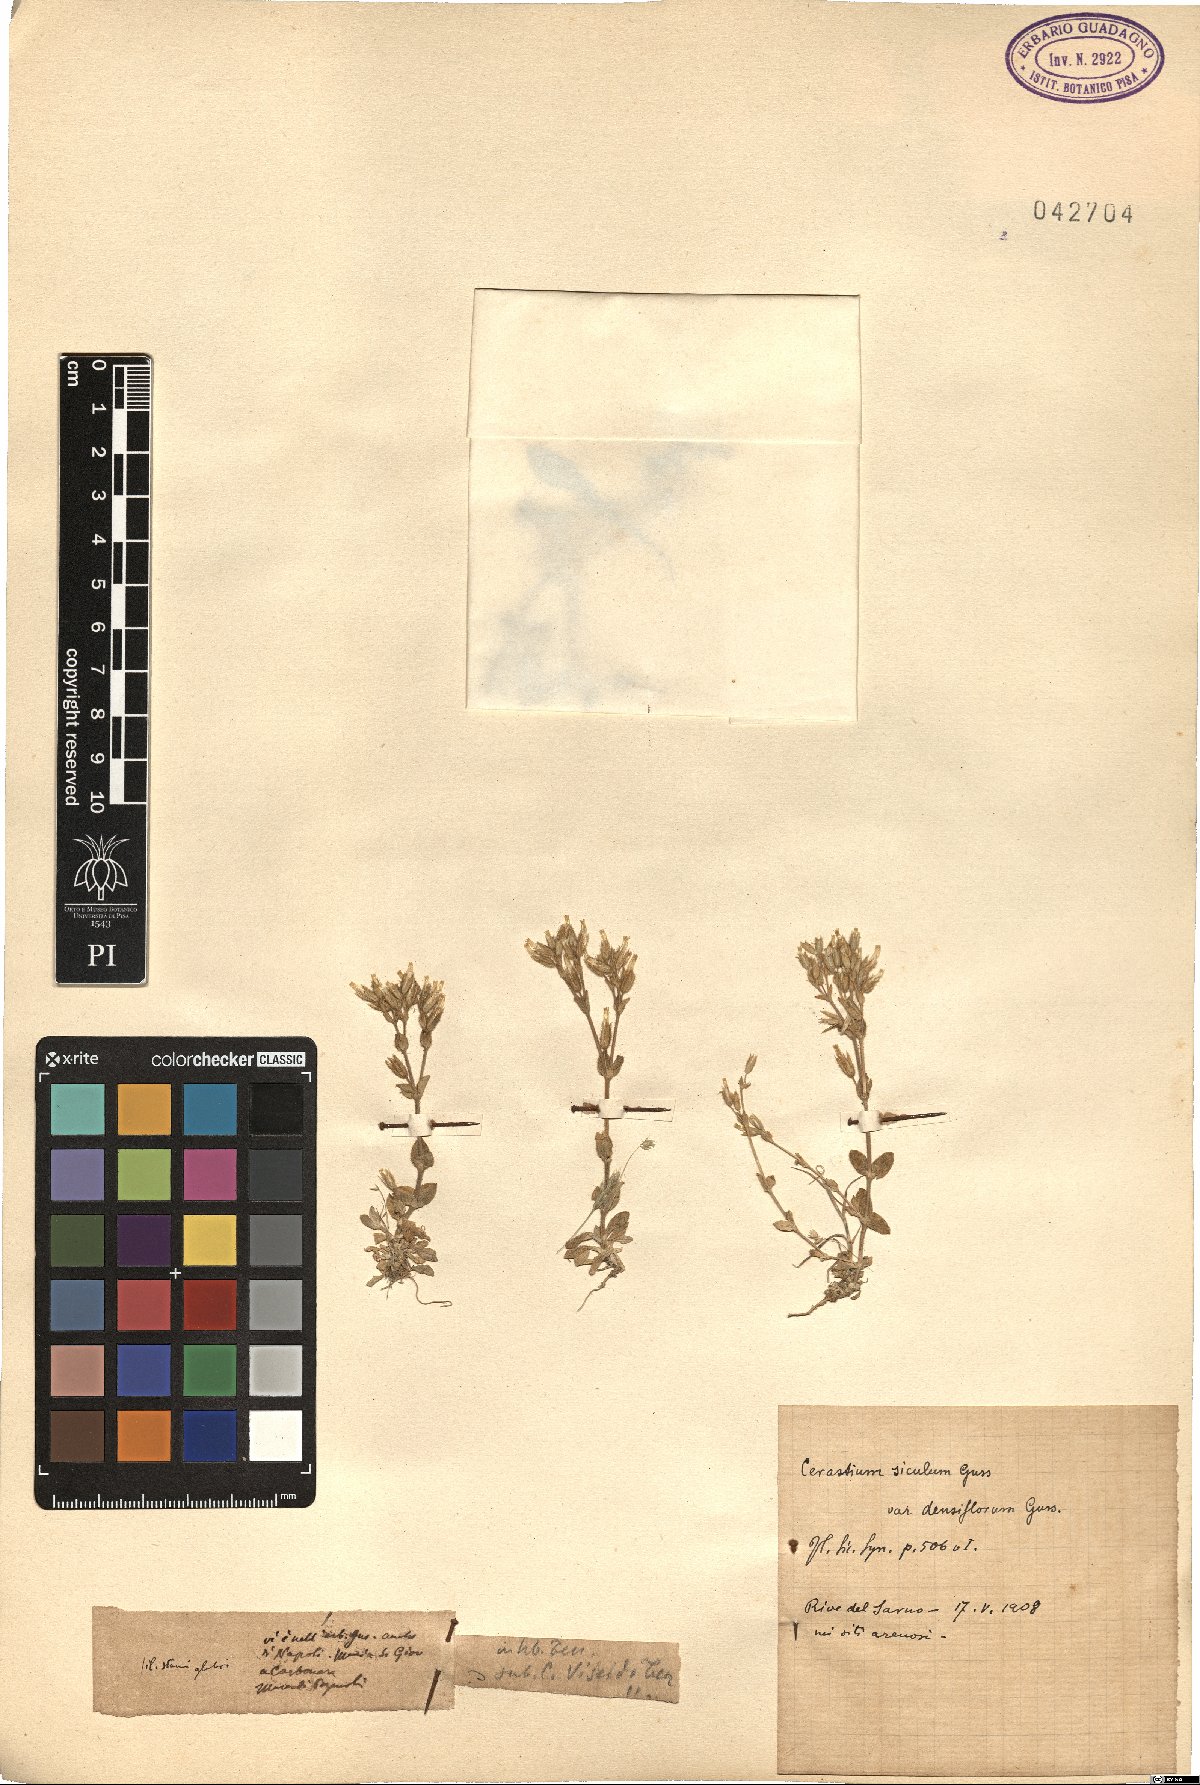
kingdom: Plantae
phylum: Tracheophyta
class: Magnoliopsida
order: Caryophyllales
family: Caryophyllaceae
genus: Cerastium
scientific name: Cerastium siculum
